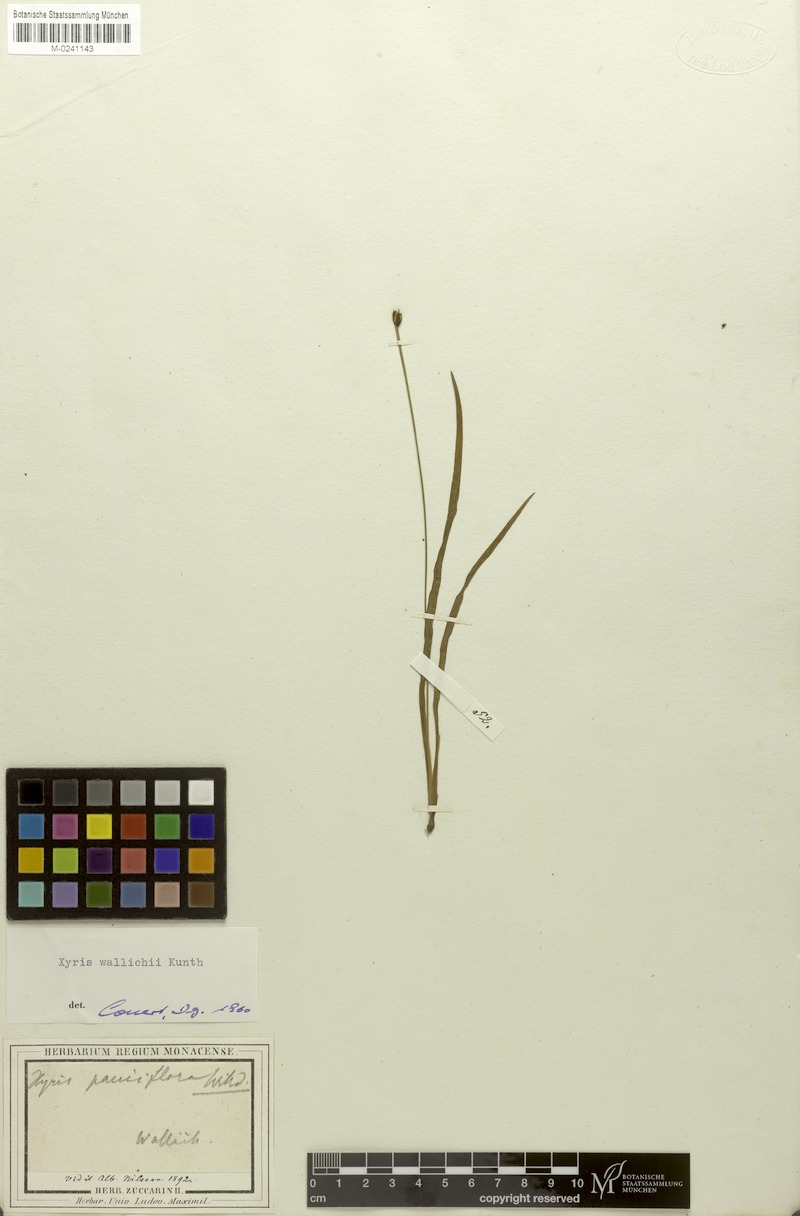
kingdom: Plantae
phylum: Tracheophyta
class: Liliopsida
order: Poales
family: Xyridaceae
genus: Xyris
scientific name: Xyris wallichii
